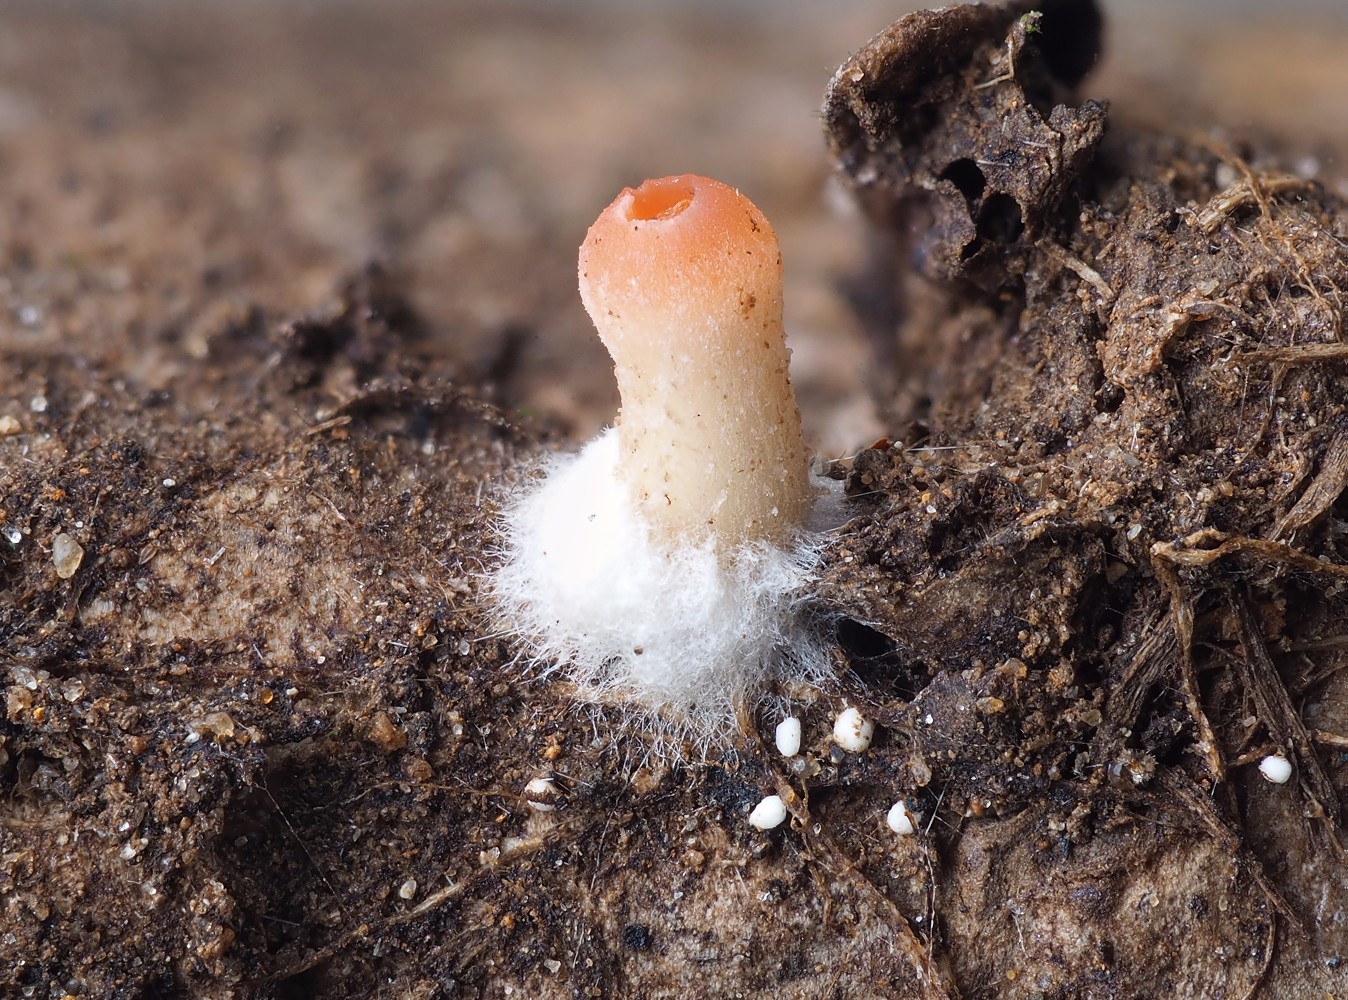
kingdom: Fungi
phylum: Ascomycota
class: Pezizomycetes
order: Pezizales
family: Sarcoscyphaceae
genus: Sarcoscypha
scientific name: Sarcoscypha austriaca
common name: krølhåret pragtbæger
